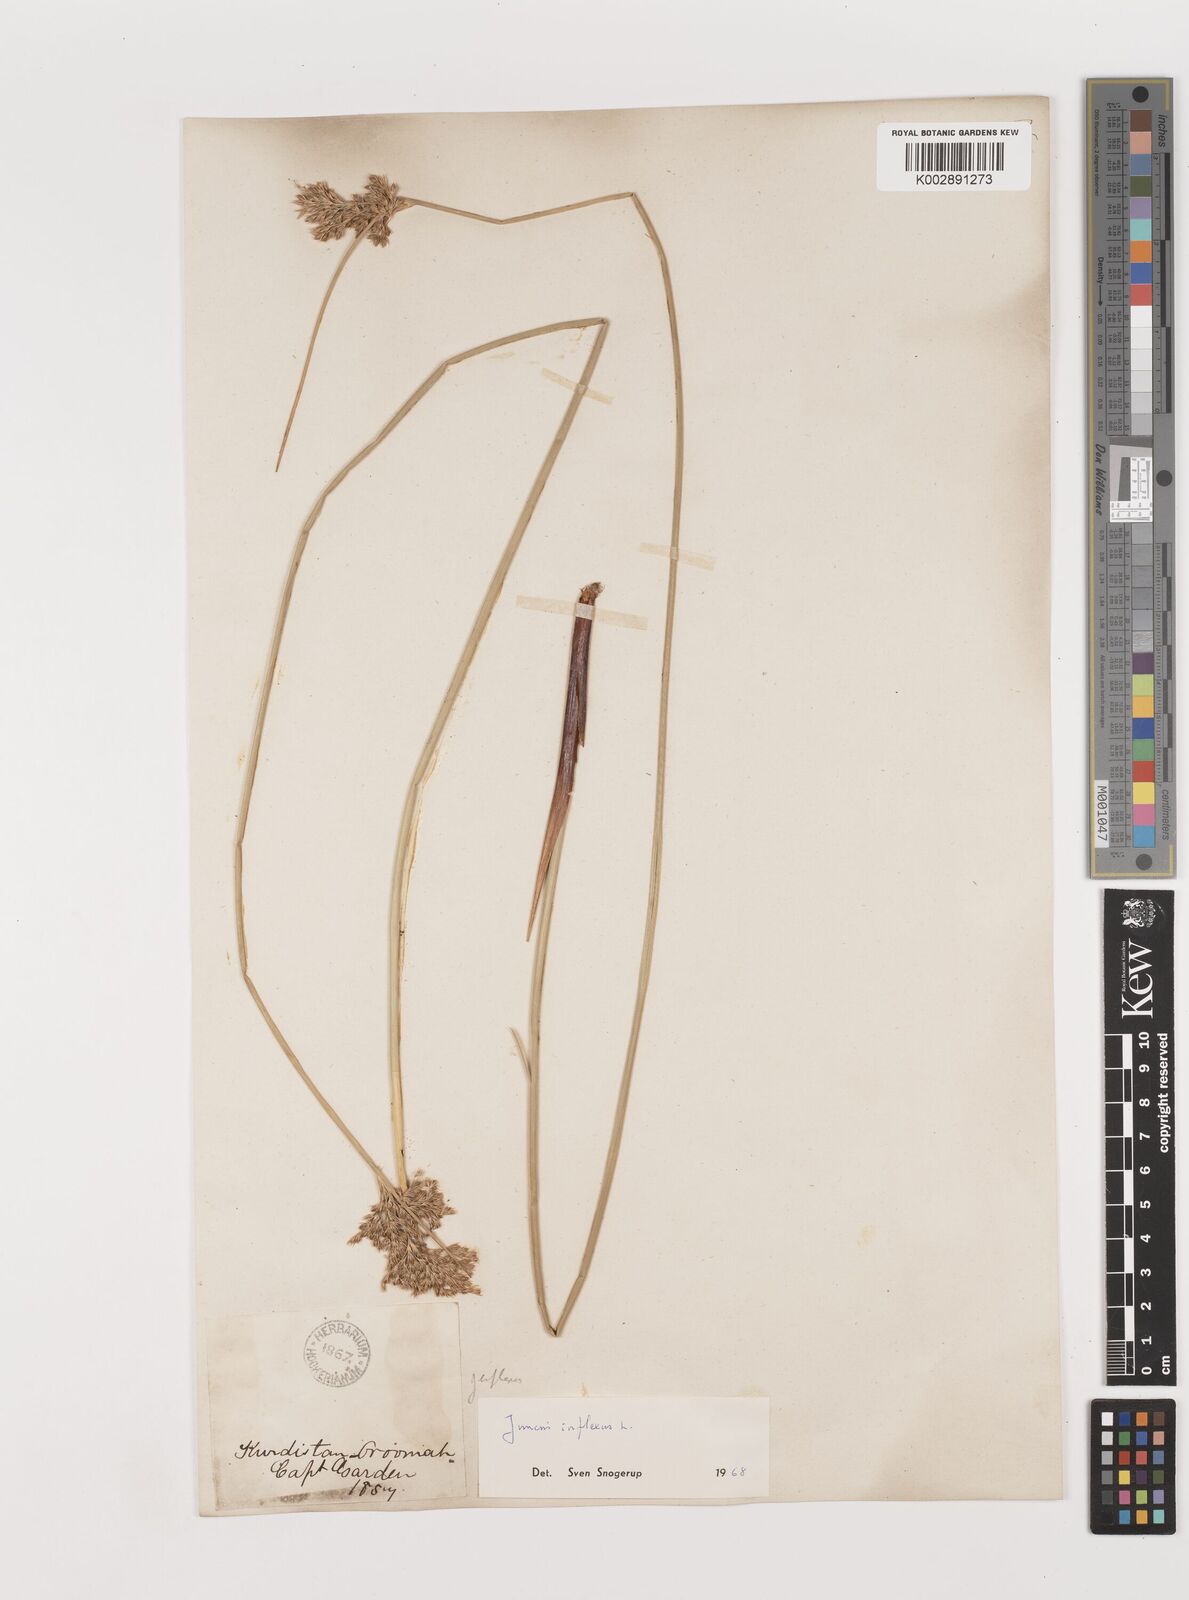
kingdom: Plantae
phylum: Tracheophyta
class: Liliopsida
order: Poales
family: Juncaceae
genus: Juncus
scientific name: Juncus inflexus
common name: Hard rush
